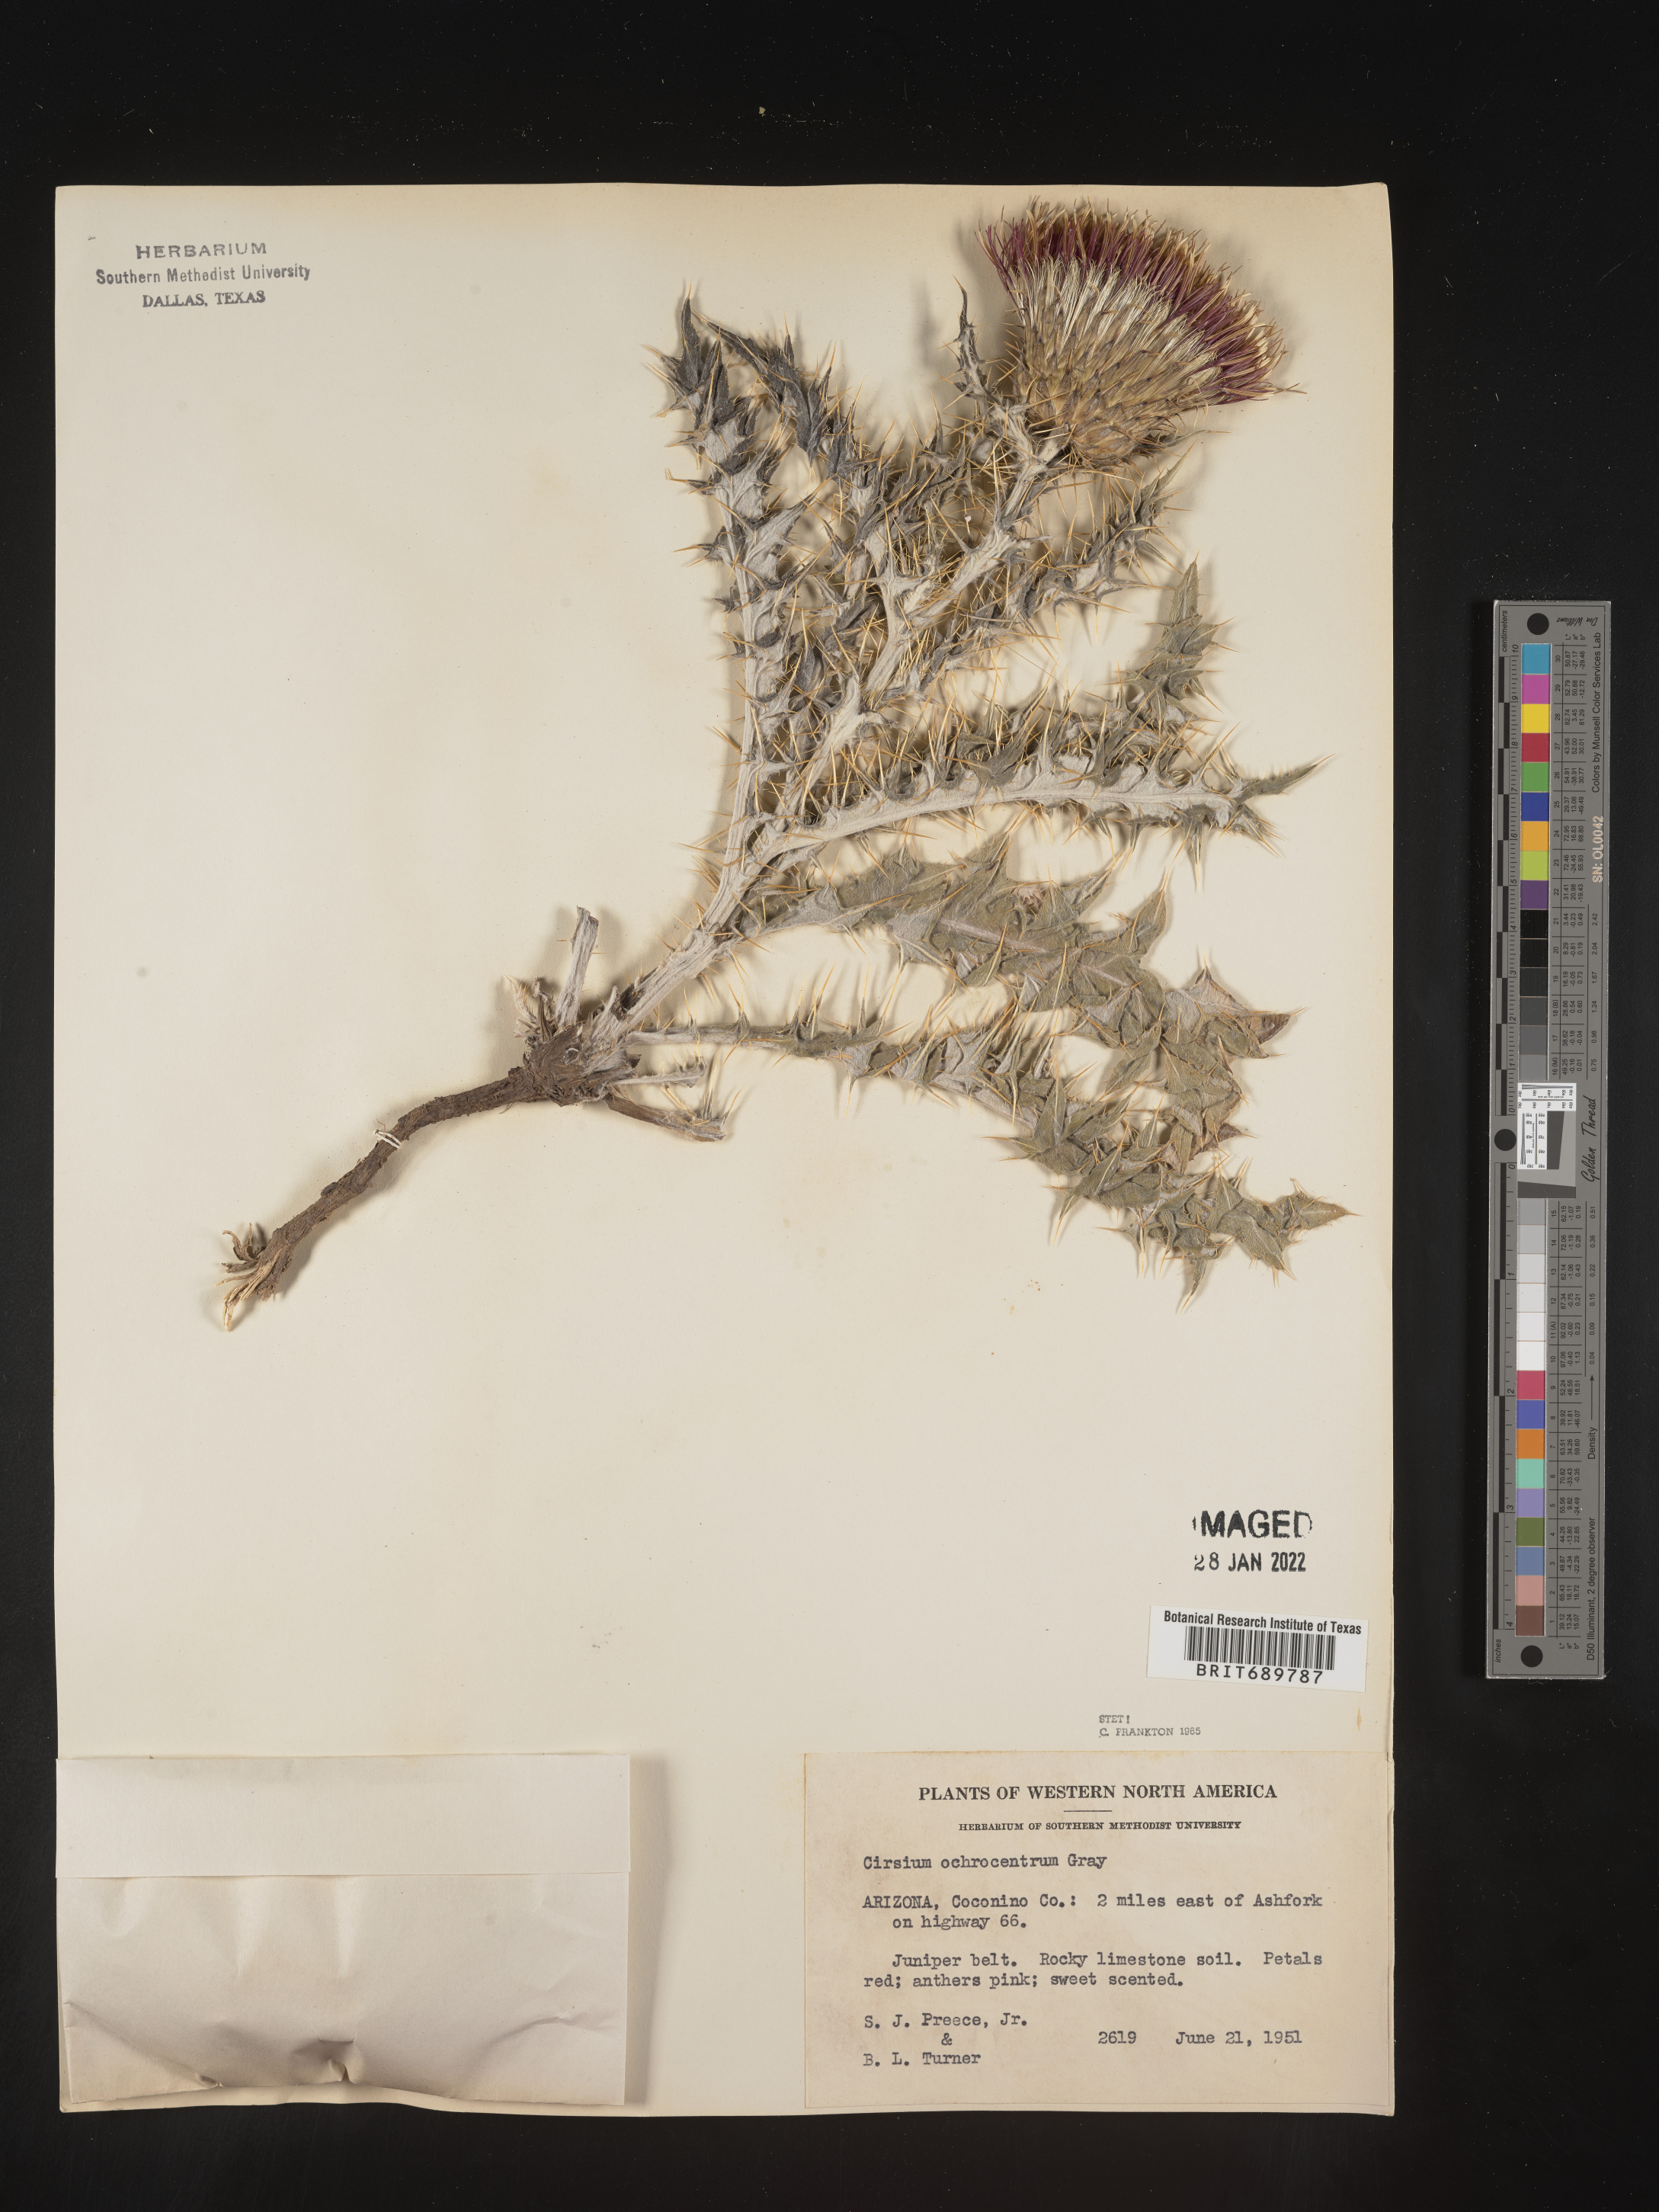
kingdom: Plantae
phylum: Tracheophyta
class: Magnoliopsida
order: Asterales
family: Asteraceae
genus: Cirsium
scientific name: Cirsium ochrocentrum
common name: Yellow-spine thistle
